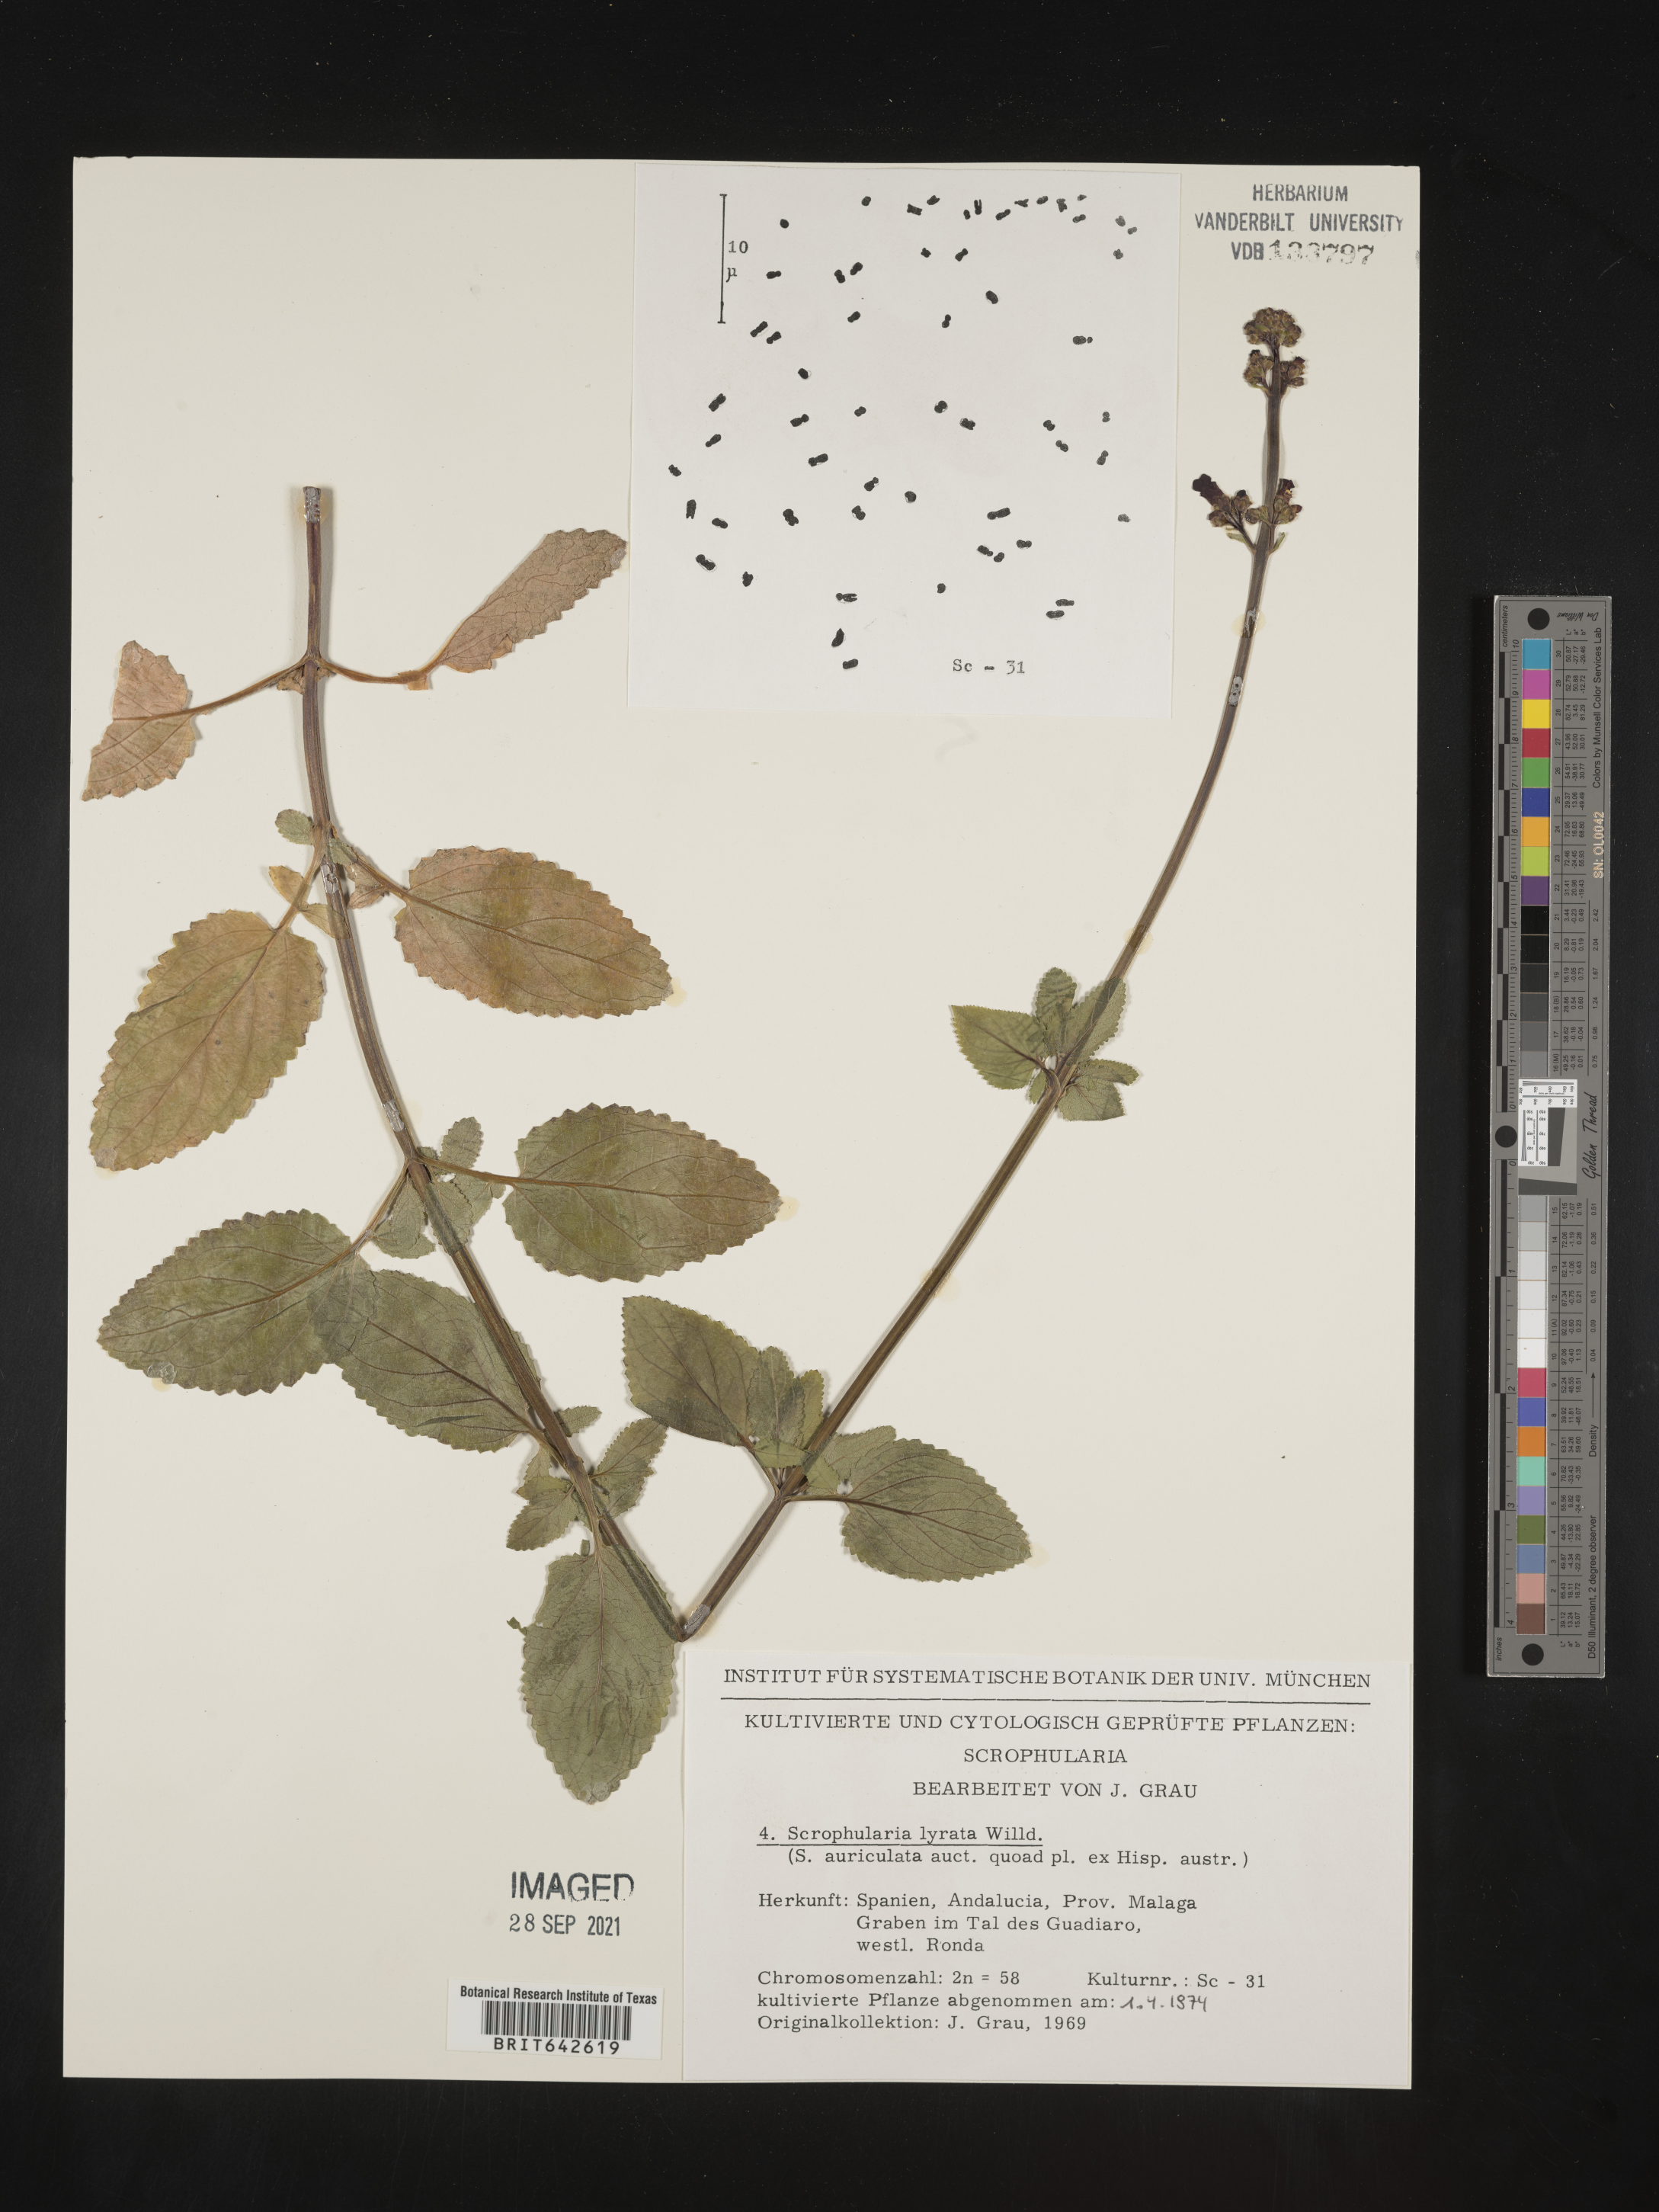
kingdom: Plantae
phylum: Tracheophyta
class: Magnoliopsida
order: Lamiales
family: Scrophulariaceae
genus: Scrophularia
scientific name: Scrophularia
